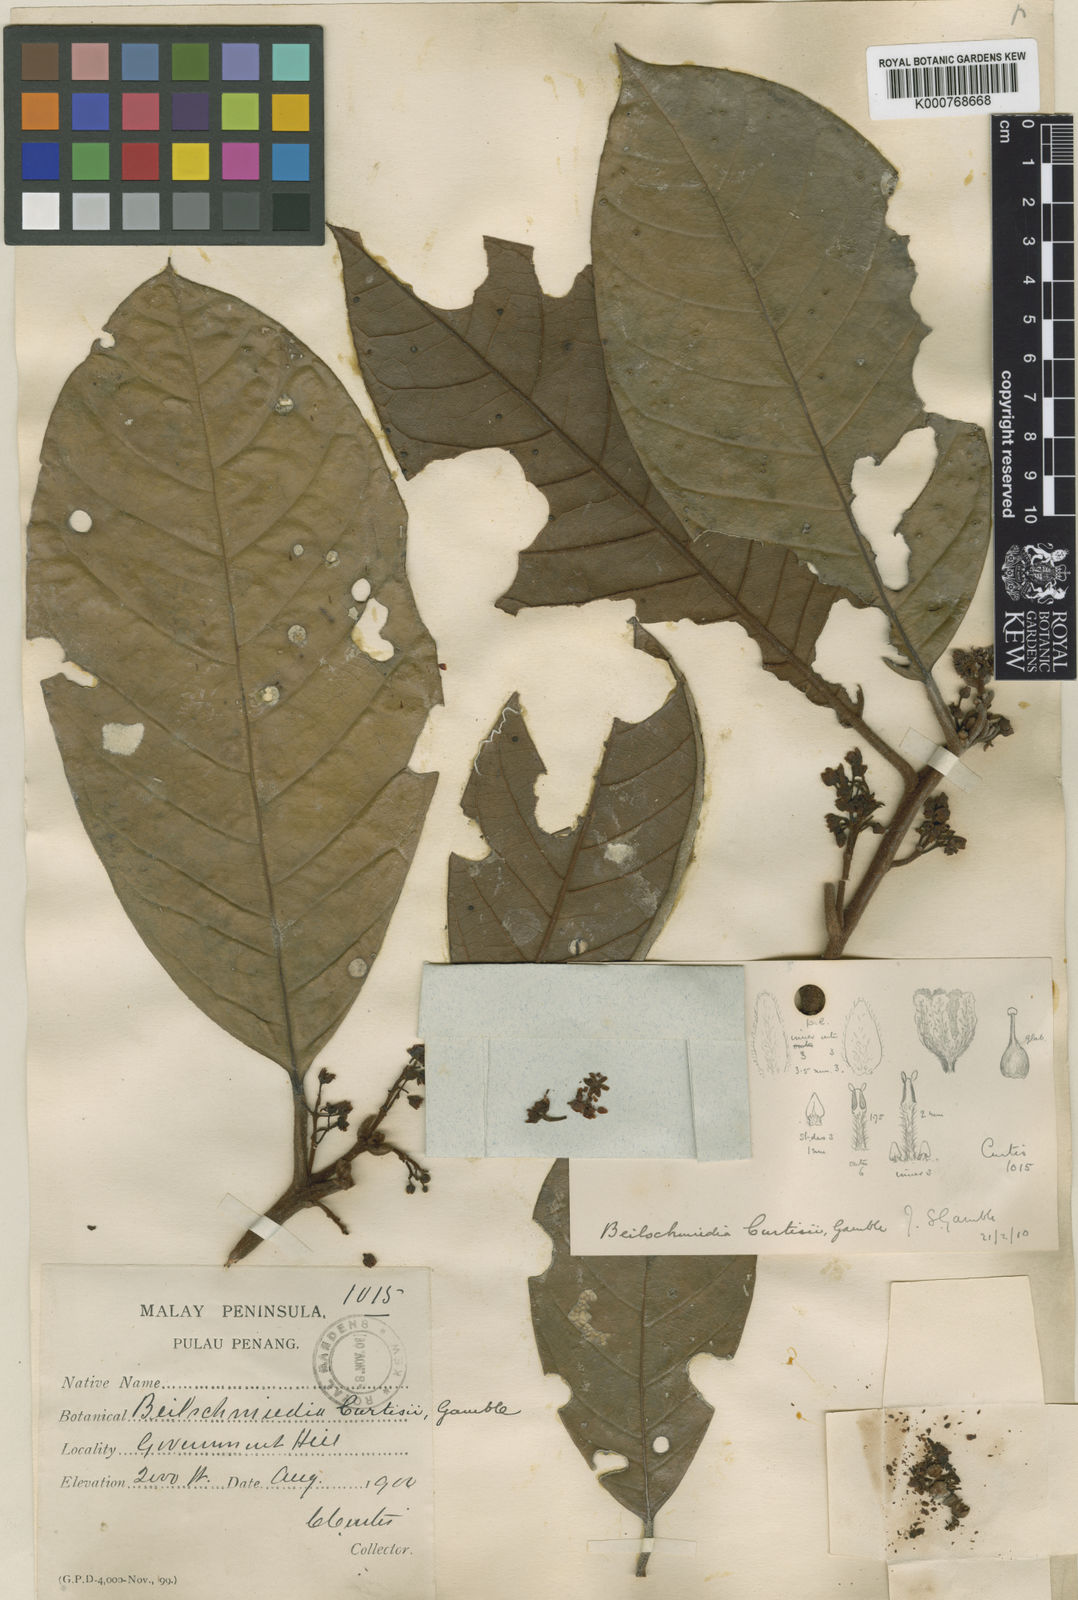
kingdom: Plantae
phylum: Tracheophyta
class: Magnoliopsida
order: Laurales
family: Lauraceae
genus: Beilschmiedia
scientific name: Beilschmiedia madang
